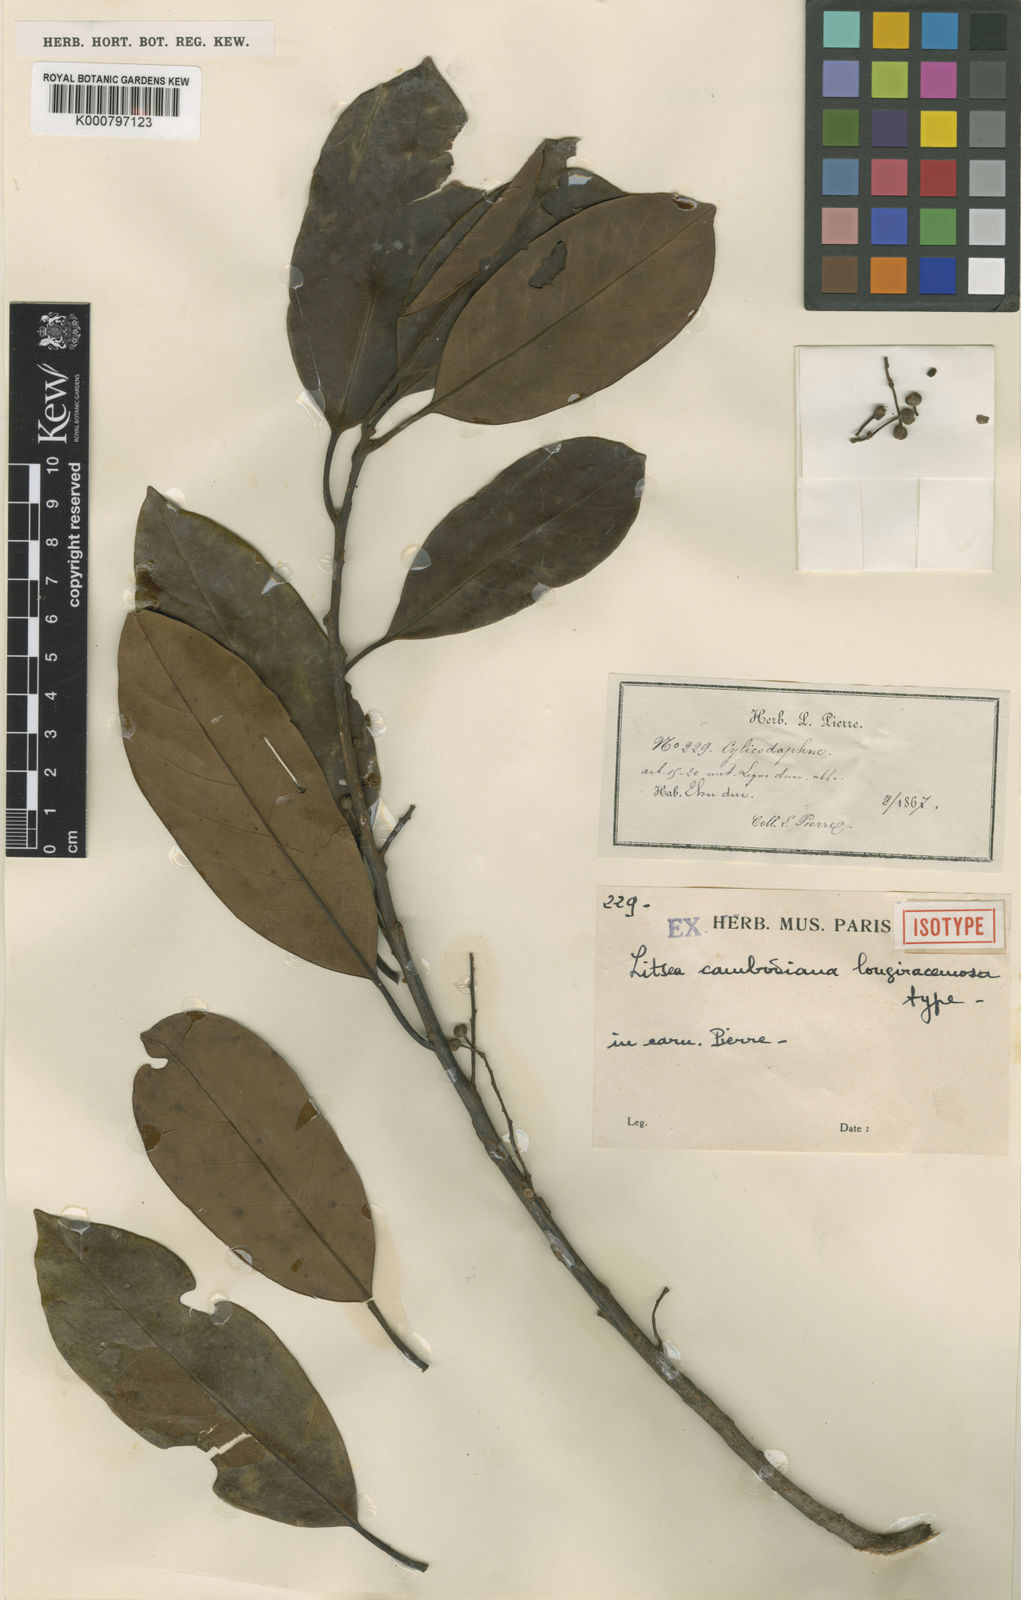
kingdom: Plantae
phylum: Tracheophyta
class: Magnoliopsida
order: Laurales
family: Lauraceae
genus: Litsea
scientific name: Litsea cambodiana
